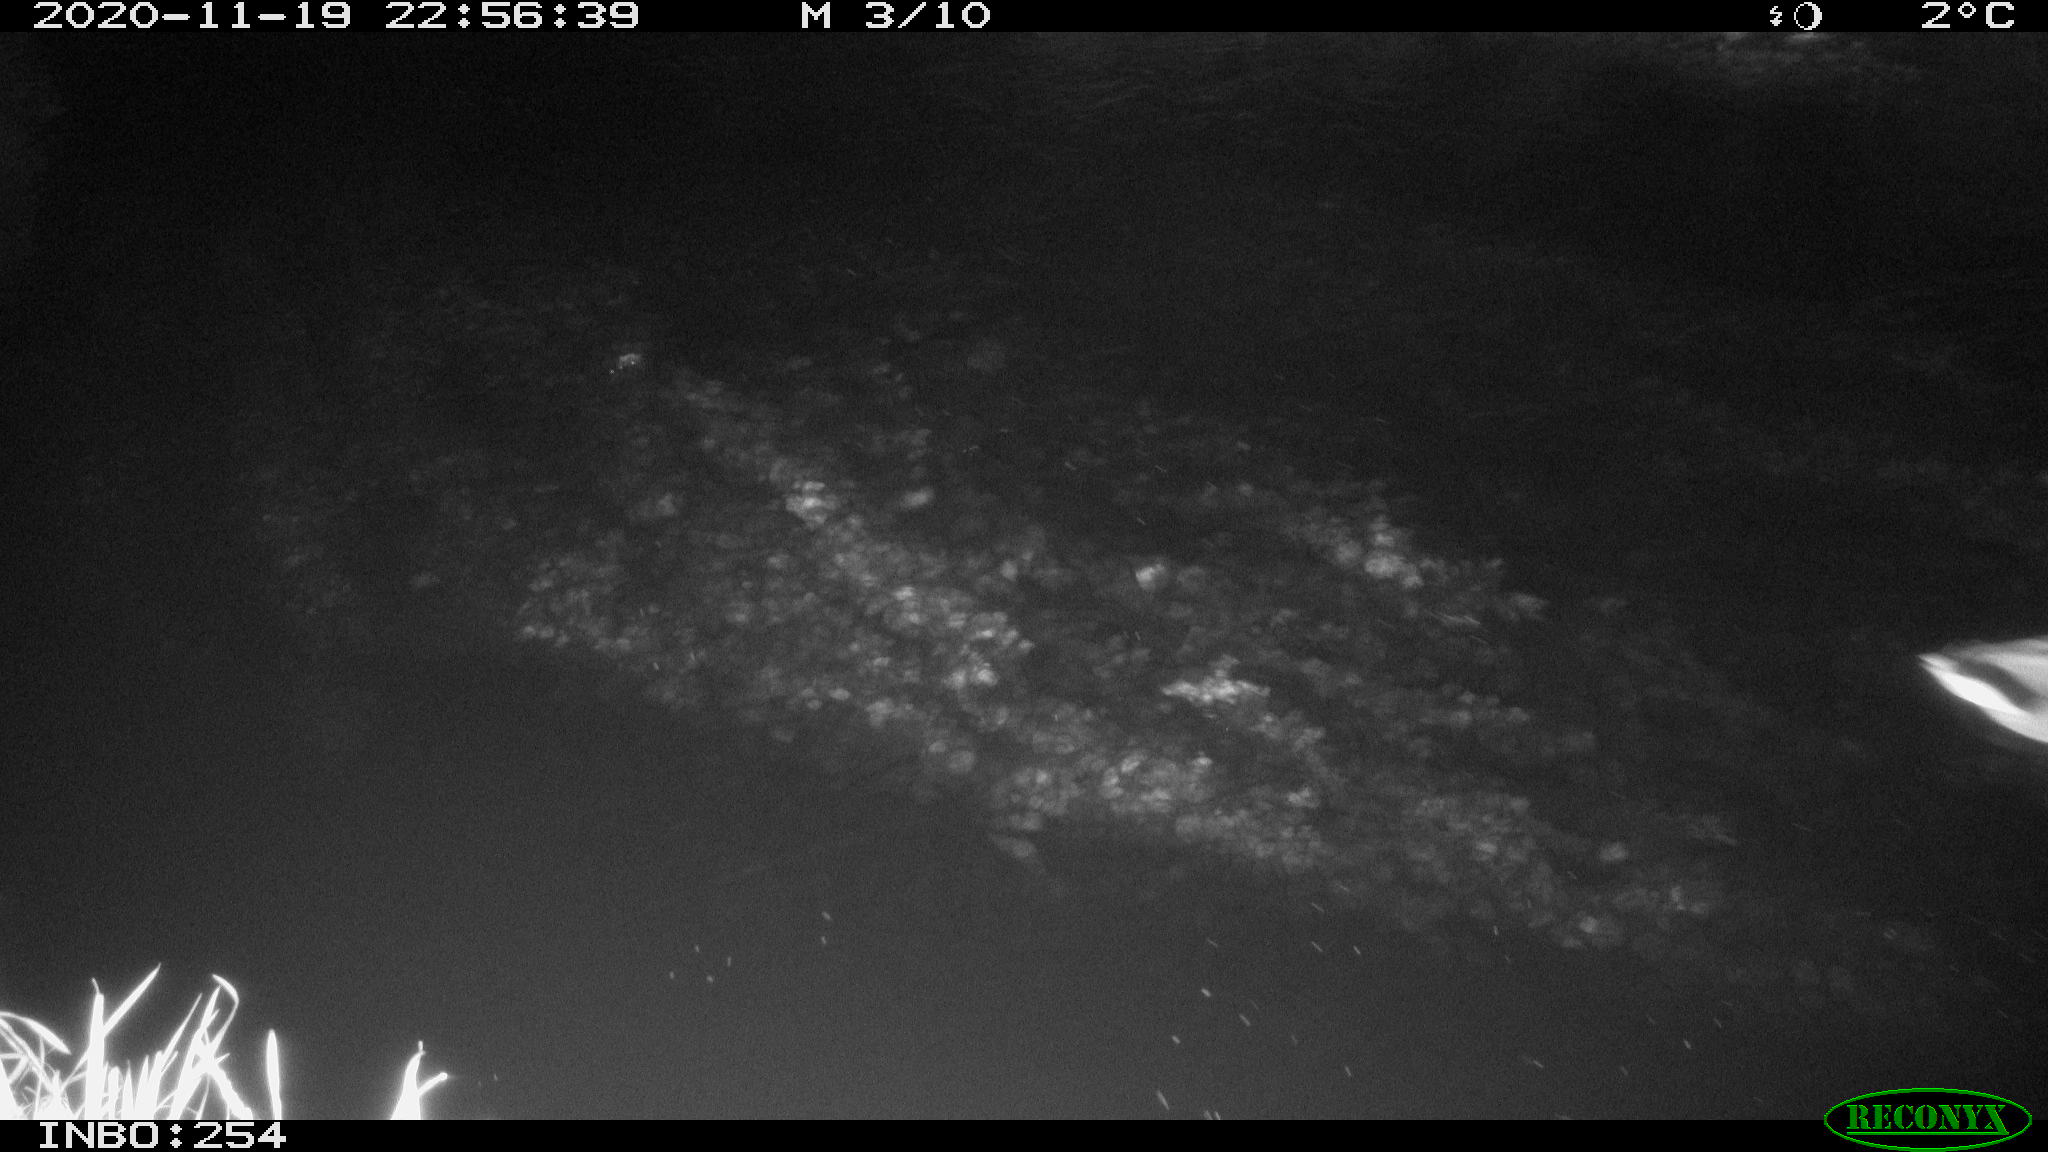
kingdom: Animalia
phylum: Chordata
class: Aves
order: Anseriformes
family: Anatidae
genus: Anas
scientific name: Anas platyrhynchos
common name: Mallard
